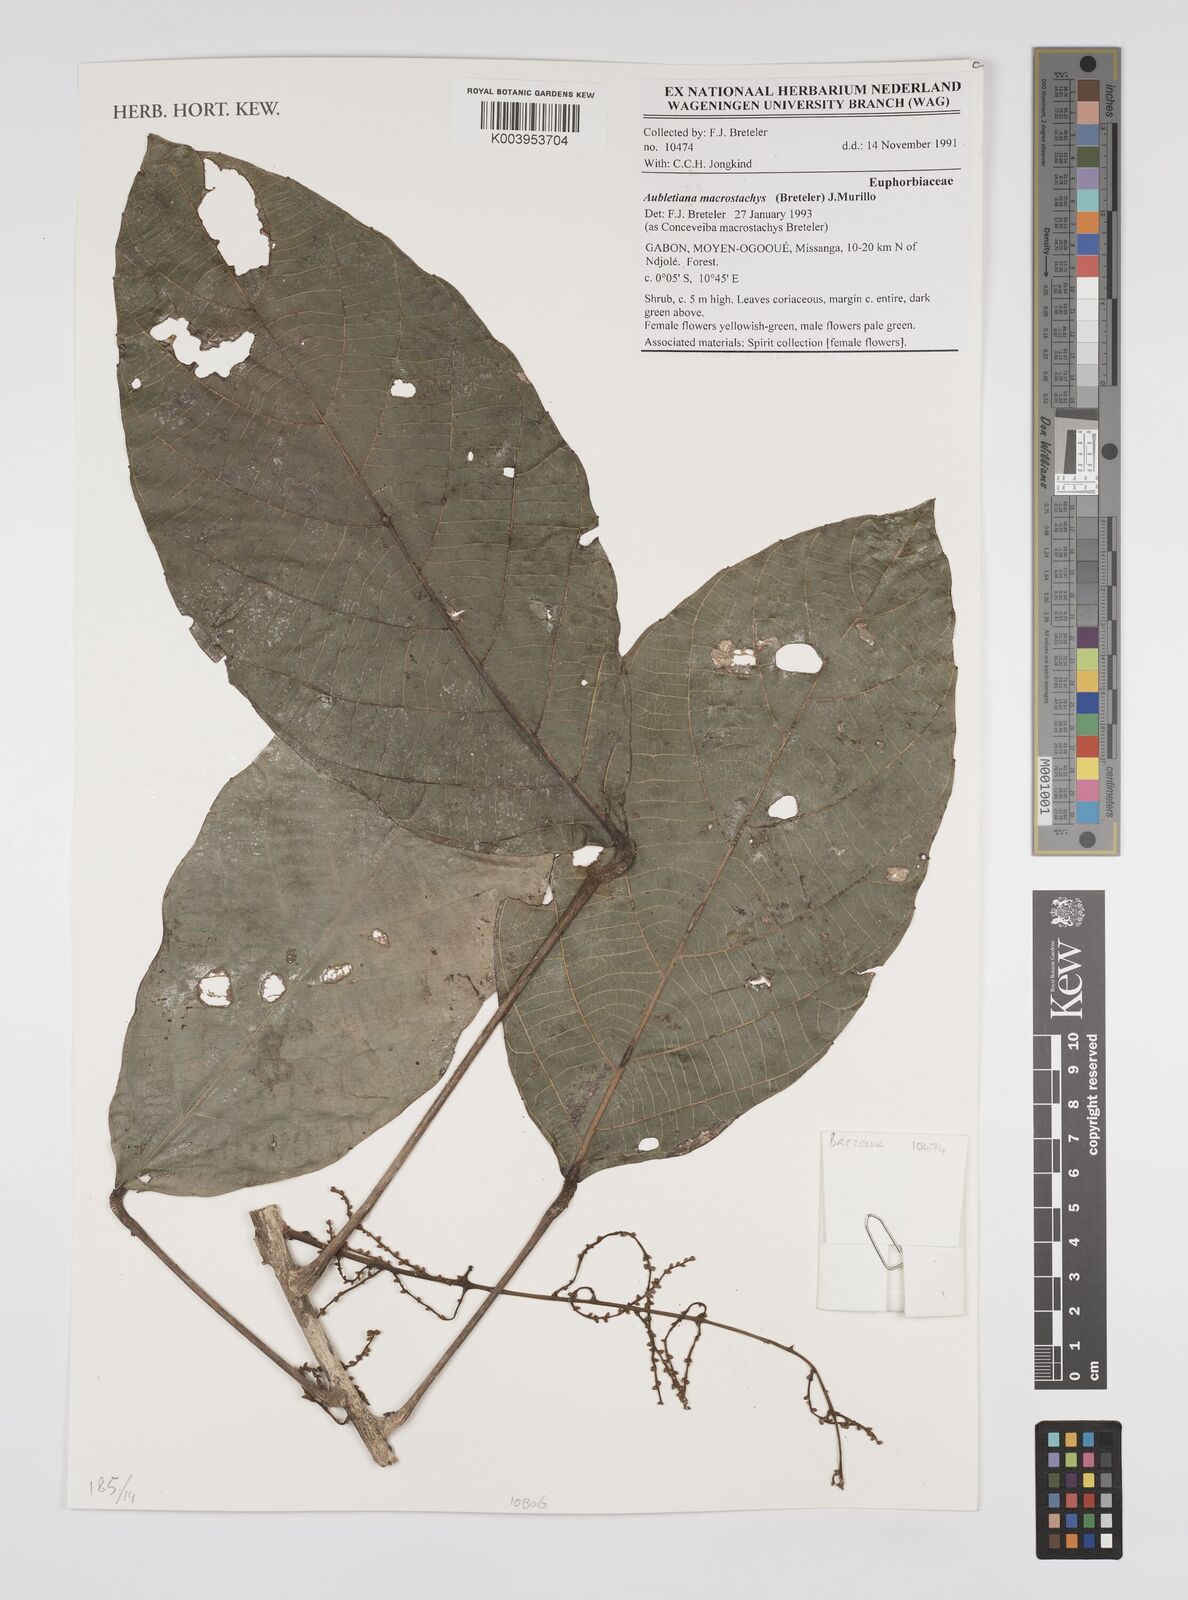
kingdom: Plantae
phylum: Tracheophyta
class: Magnoliopsida
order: Malpighiales
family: Euphorbiaceae
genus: Aubletiana
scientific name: Aubletiana macrostachys
